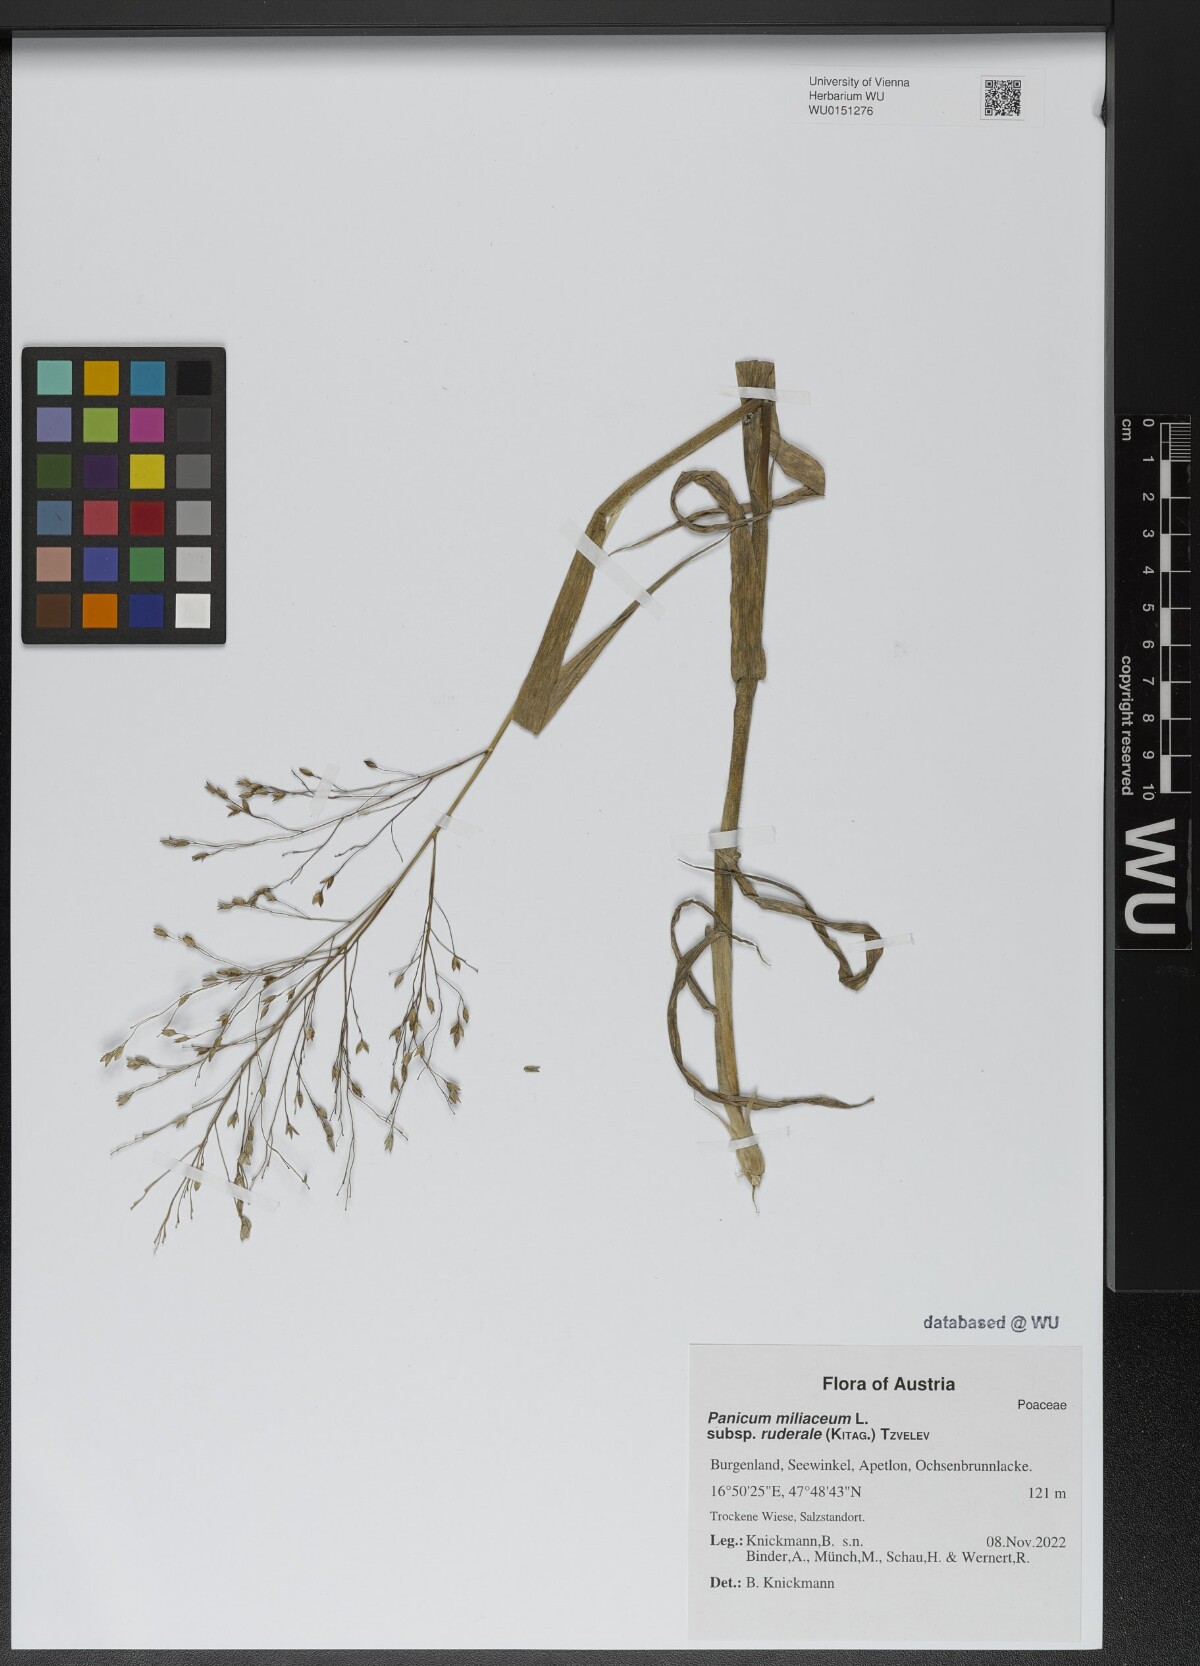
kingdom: Plantae
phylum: Tracheophyta
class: Liliopsida
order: Poales
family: Poaceae
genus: Panicum
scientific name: Panicum miliaceum
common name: Common millet
